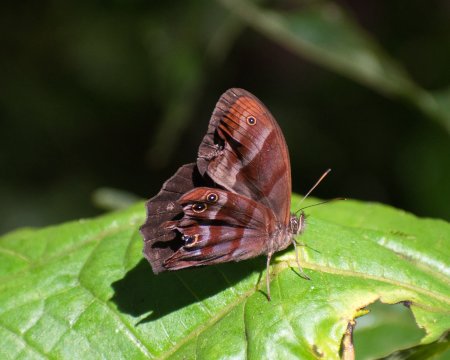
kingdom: Animalia
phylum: Arthropoda
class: Insecta
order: Lepidoptera
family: Nymphalidae
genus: Magneuptychia
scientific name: Magneuptychia tiessa
